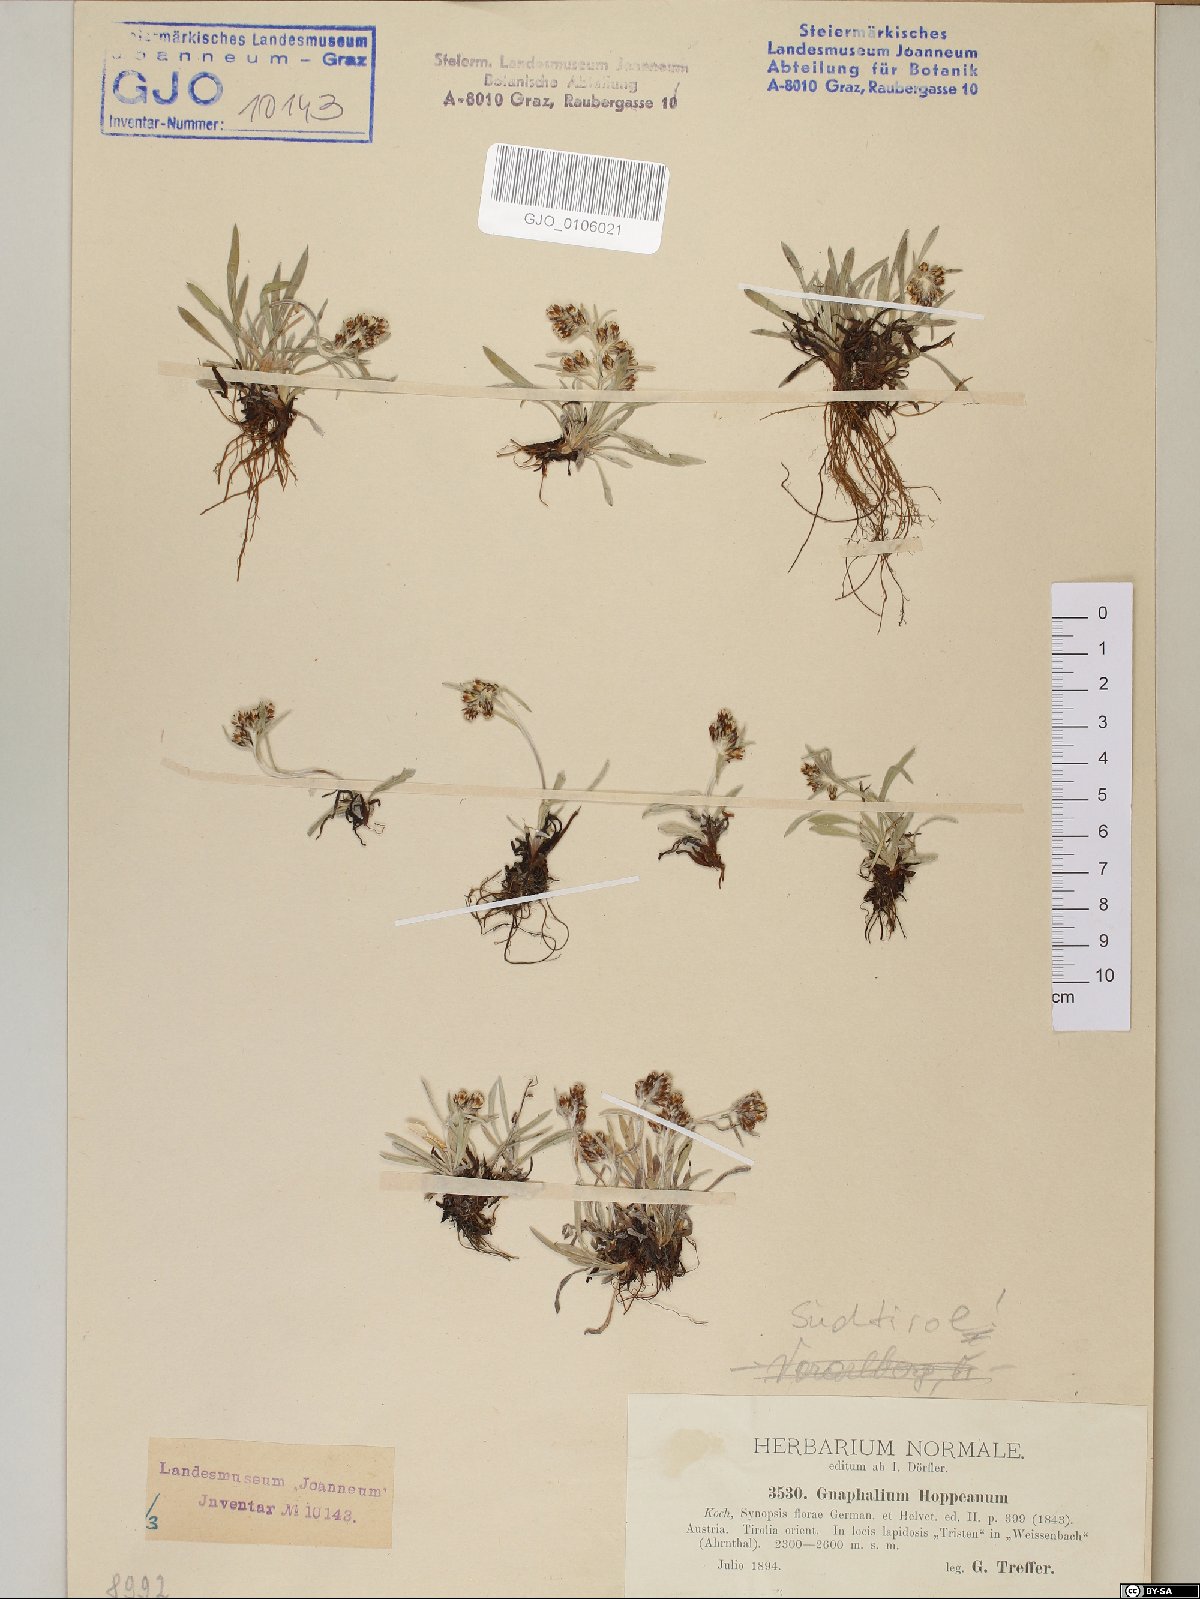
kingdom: Plantae
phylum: Tracheophyta
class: Magnoliopsida
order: Asterales
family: Asteraceae
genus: Omalotheca
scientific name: Omalotheca hoppeana
